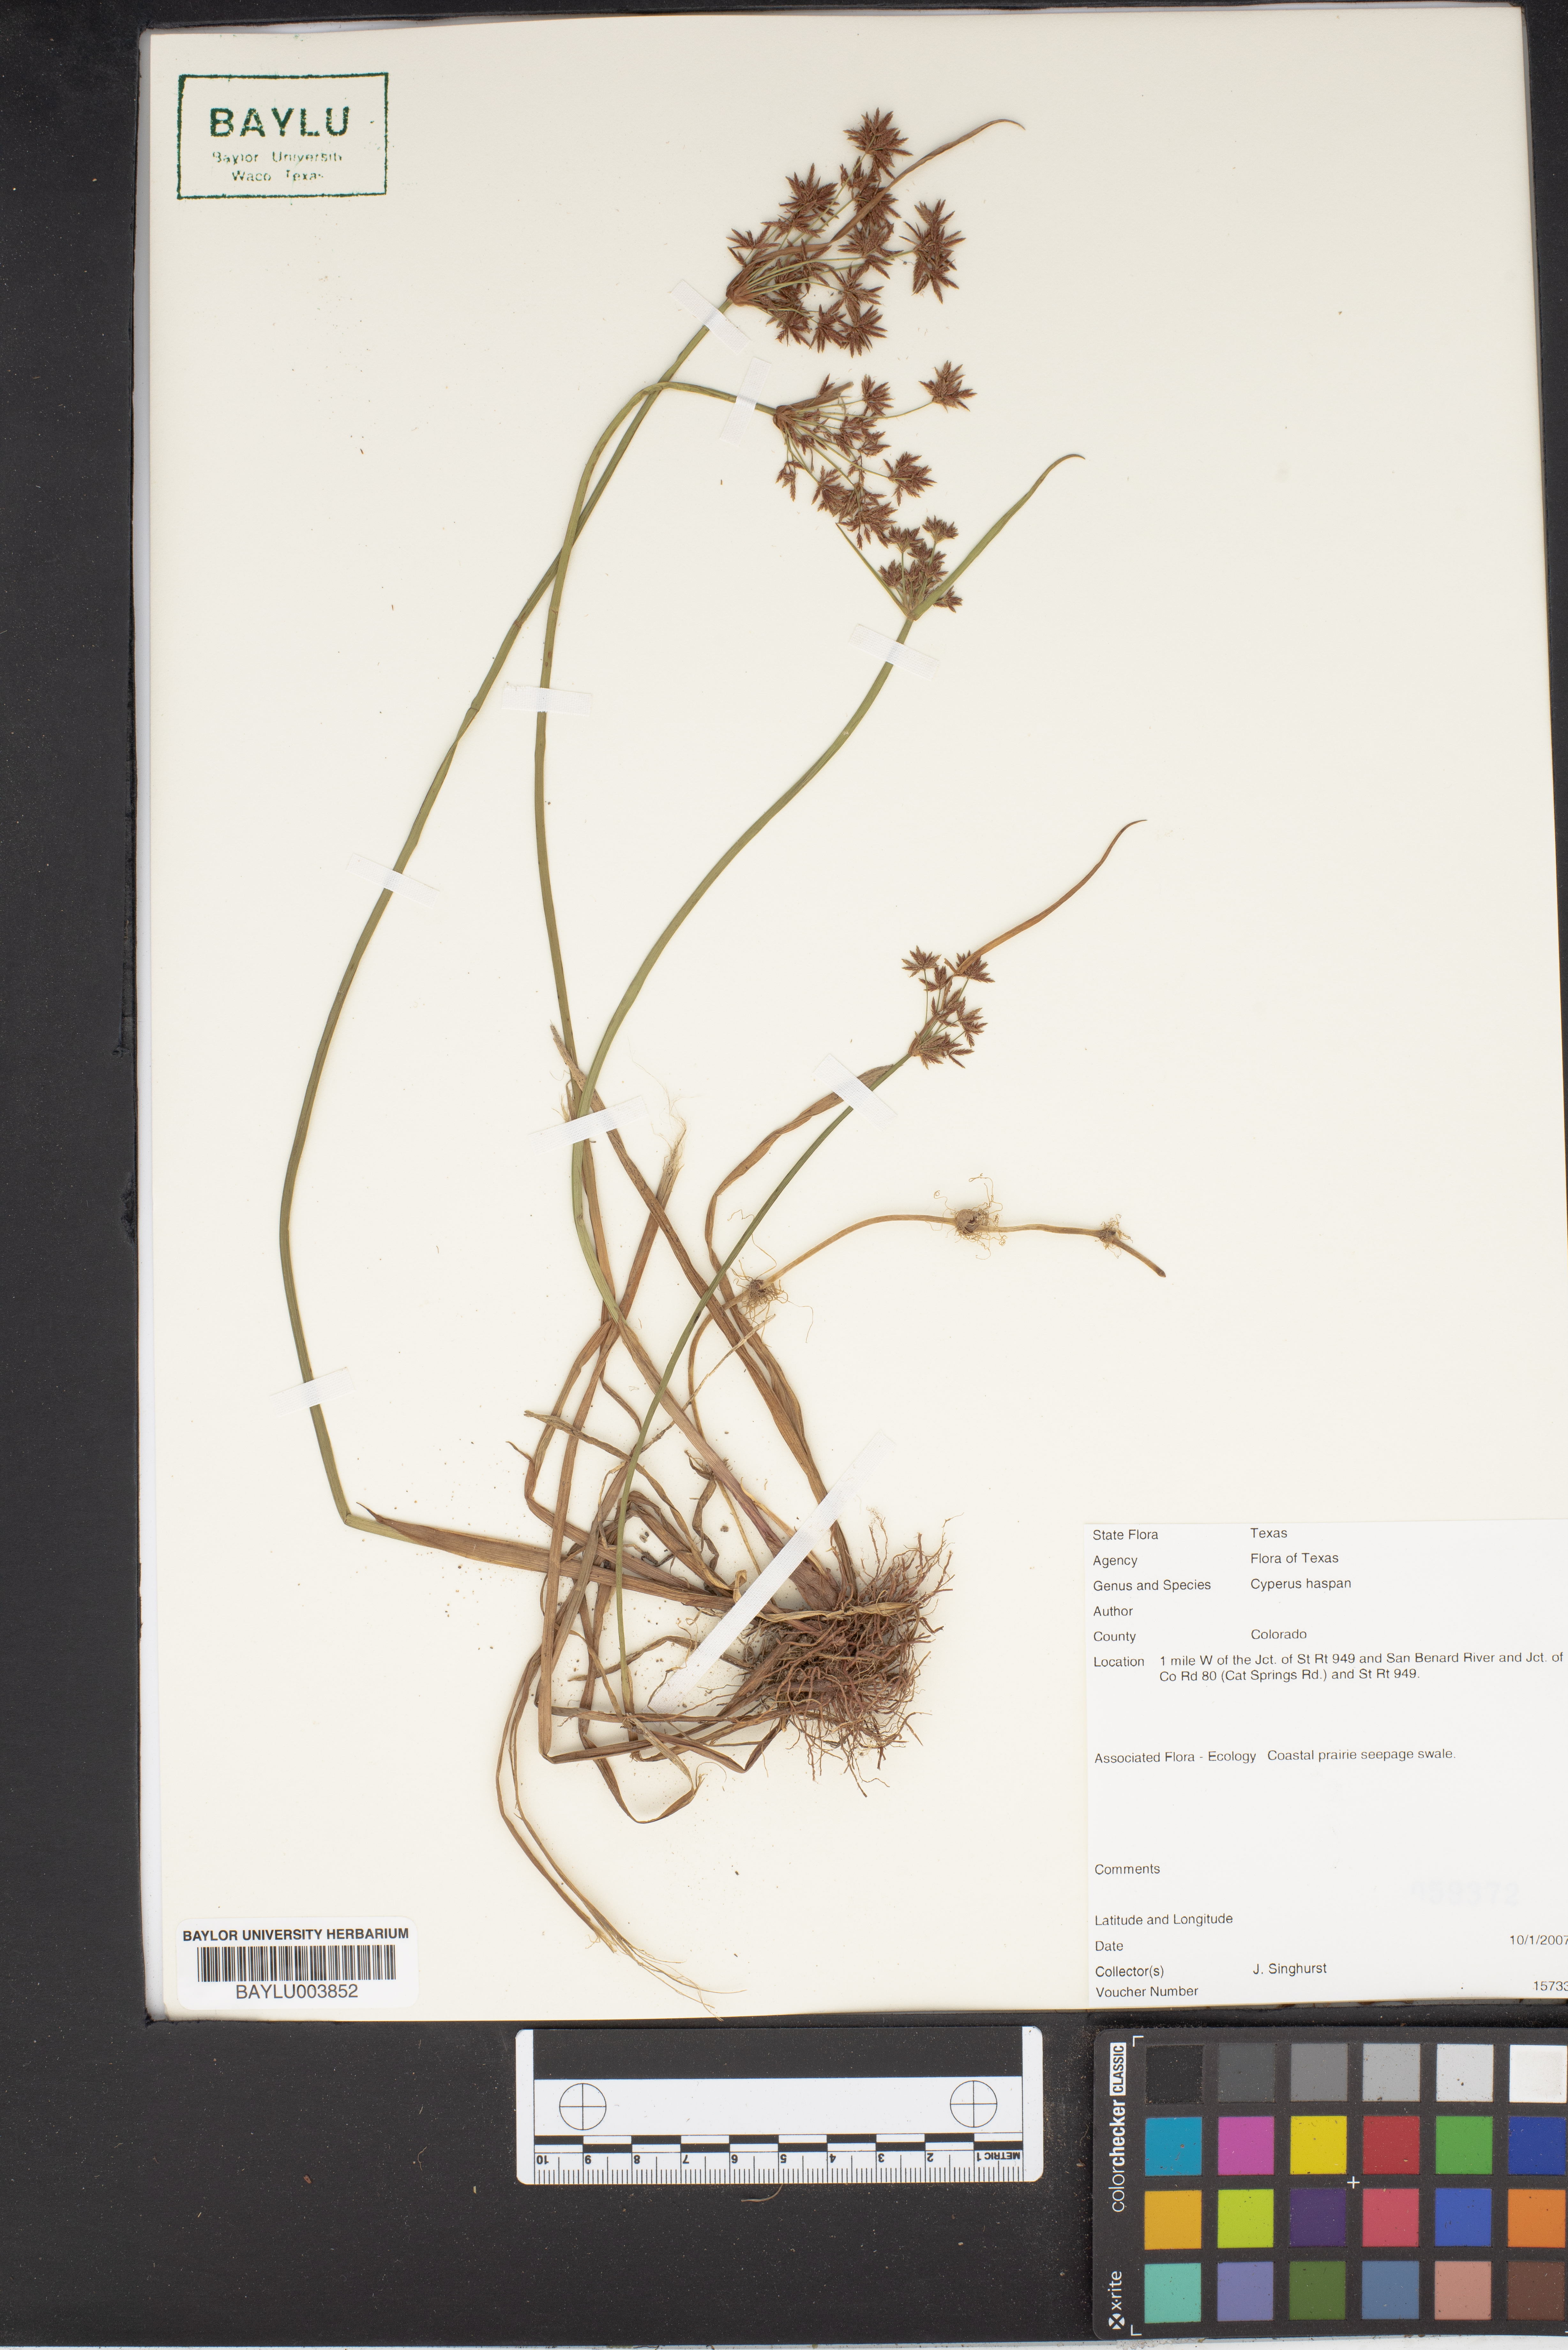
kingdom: Plantae
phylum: Tracheophyta
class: Liliopsida
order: Poales
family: Cyperaceae
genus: Cyperus
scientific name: Cyperus haspan
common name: Haspan flatsedge
